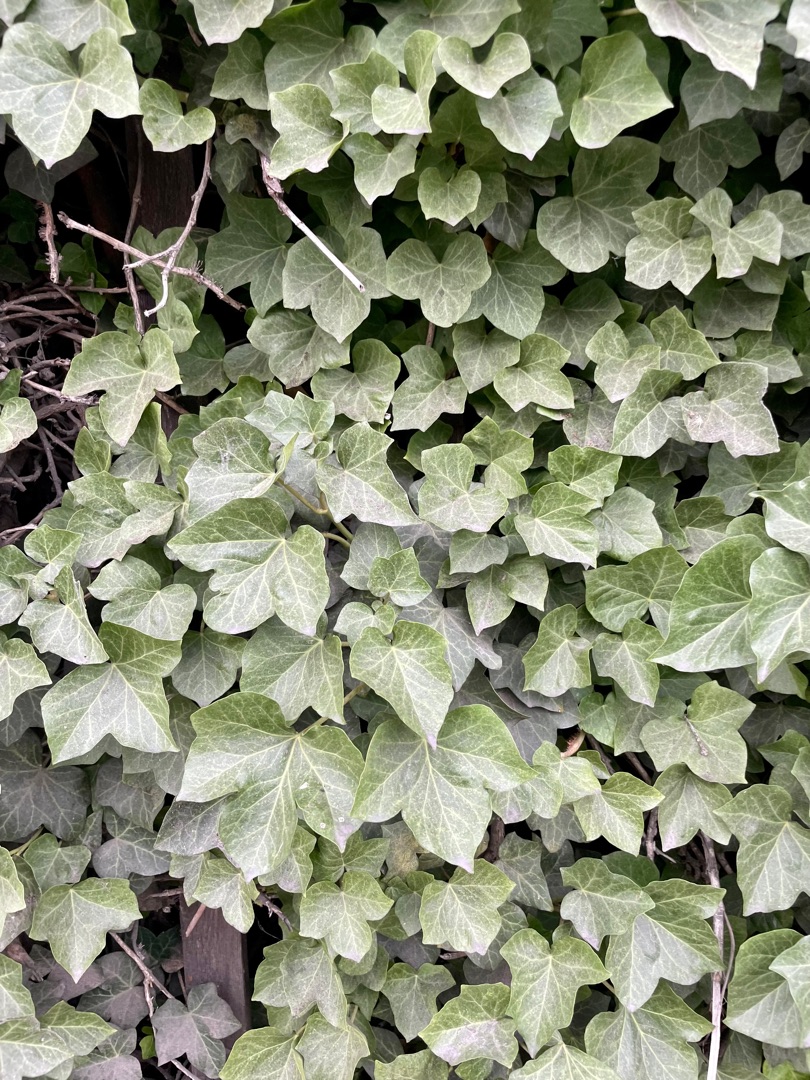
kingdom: Plantae
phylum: Tracheophyta
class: Magnoliopsida
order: Apiales
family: Araliaceae
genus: Hedera
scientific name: Hedera helix
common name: Vedbend
